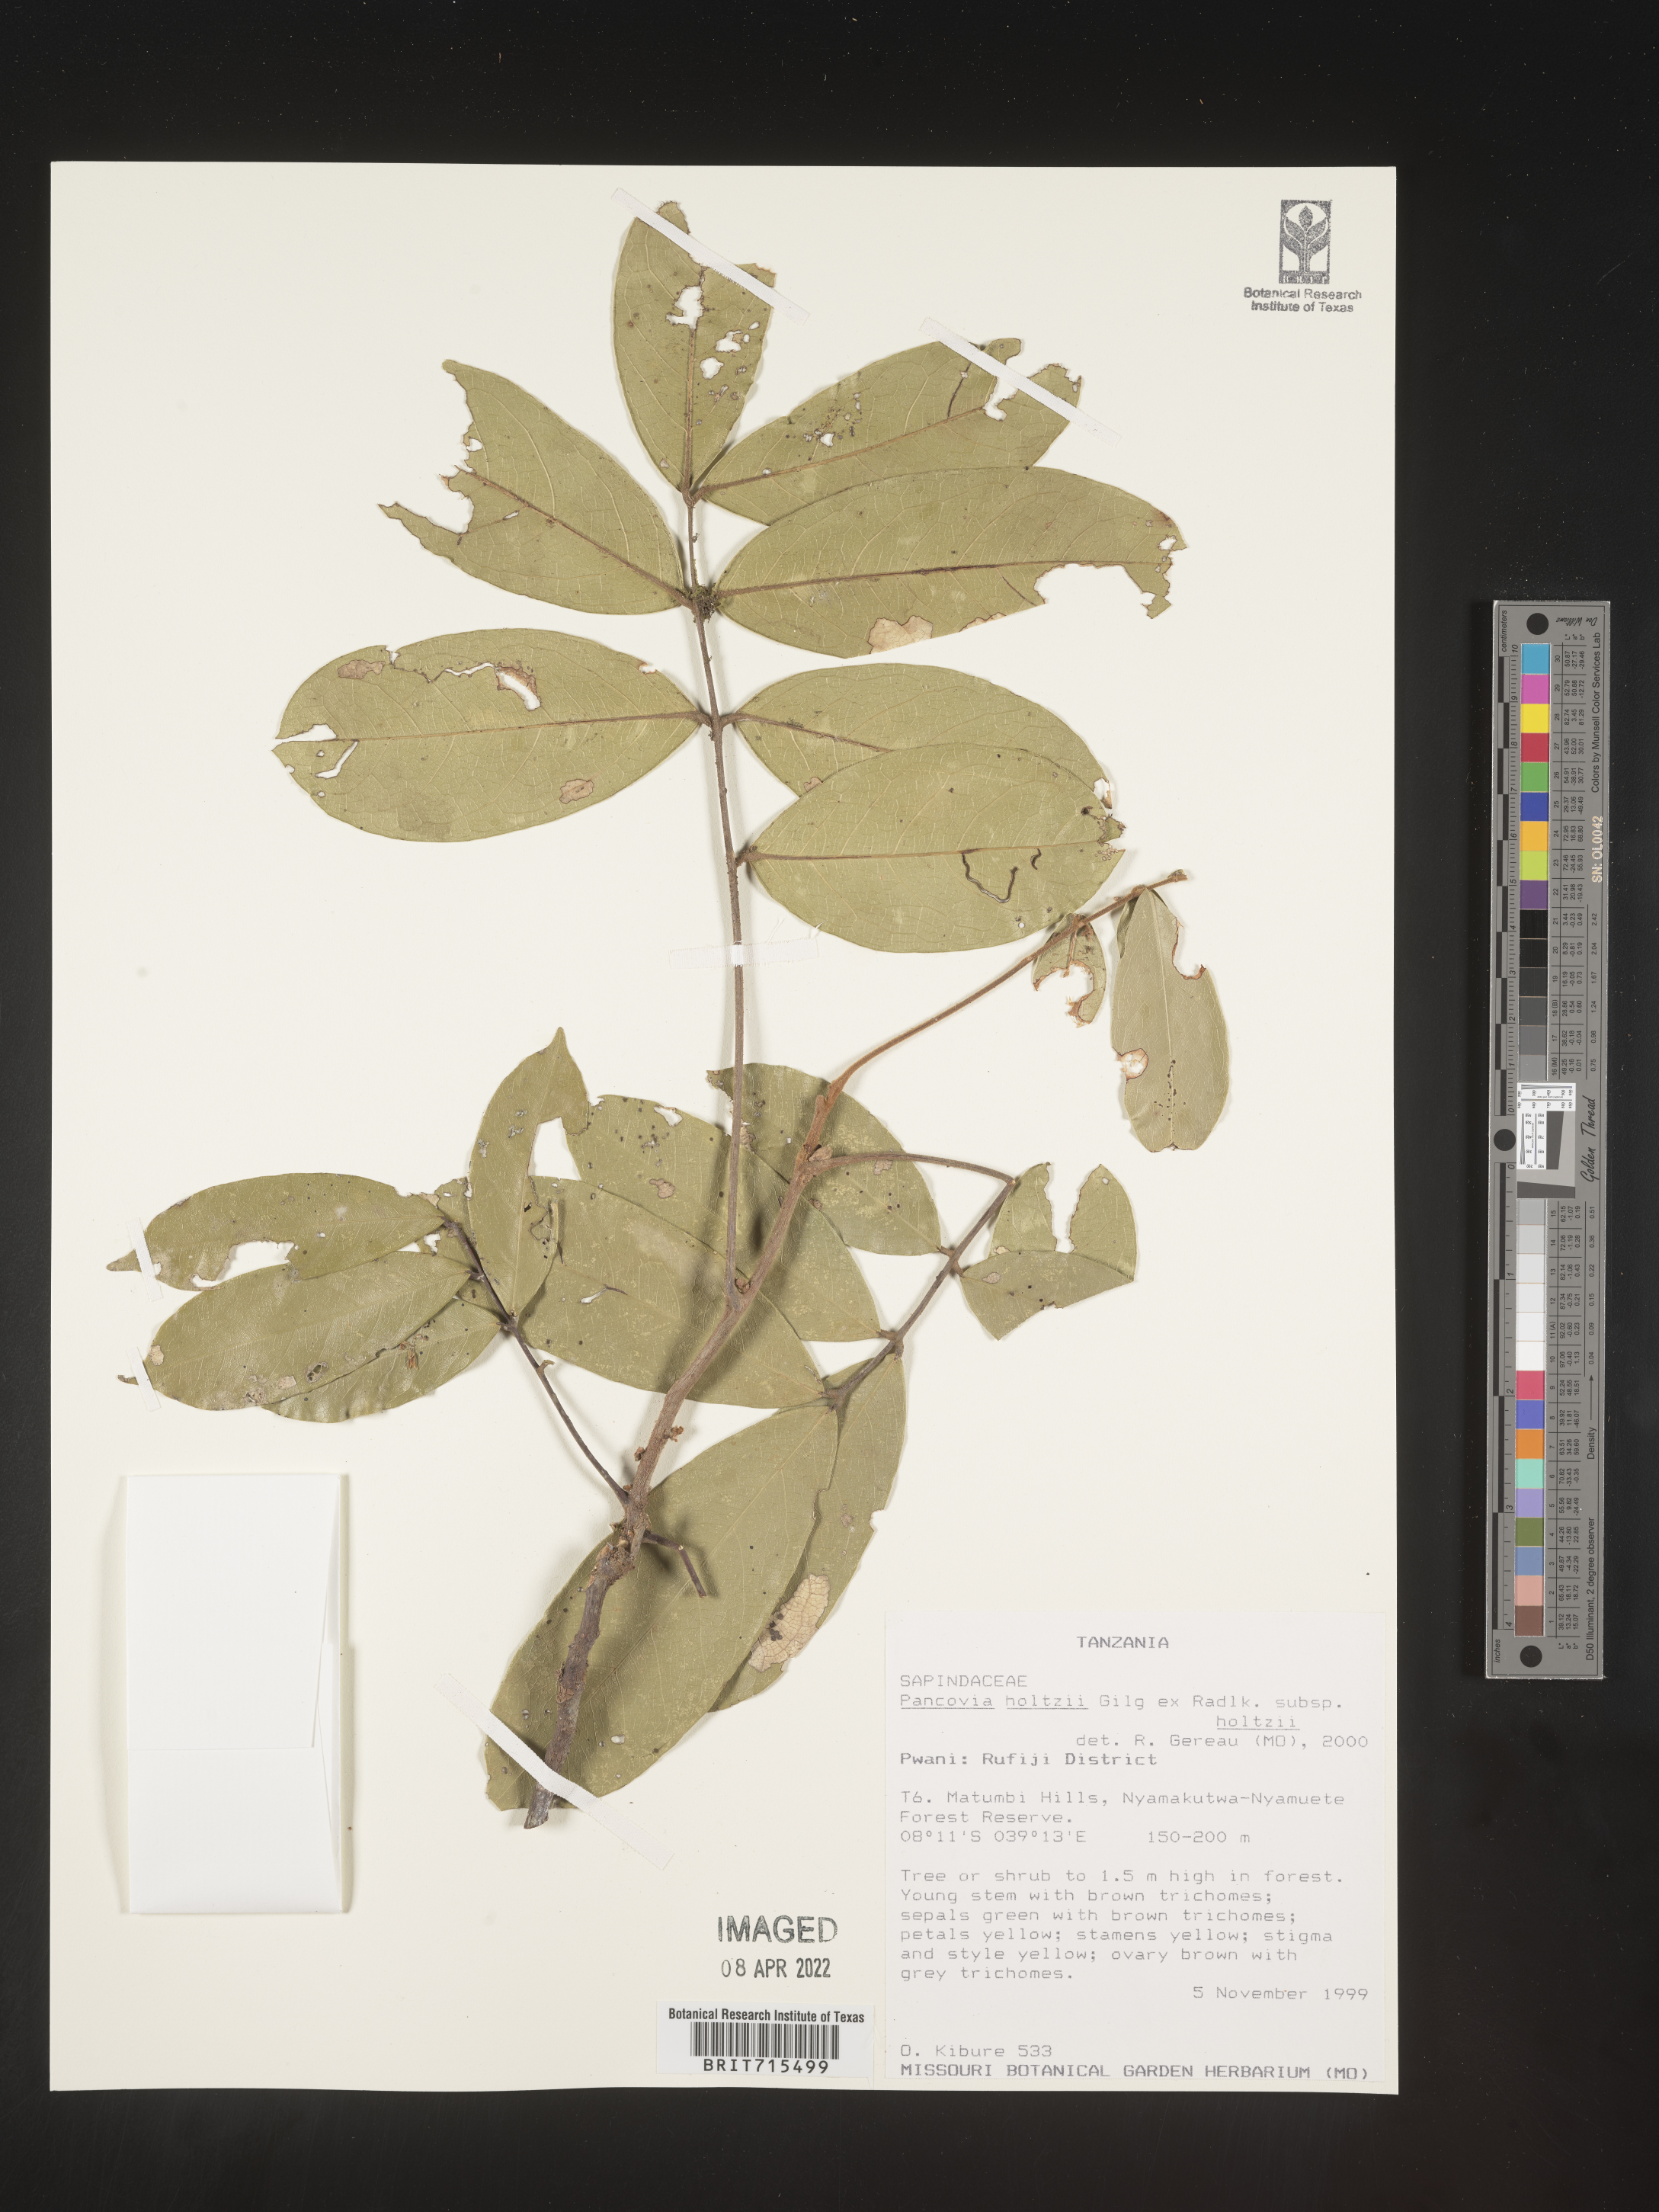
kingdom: Plantae
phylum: Tracheophyta
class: Magnoliopsida
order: Sapindales
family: Sapindaceae
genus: Pancovia
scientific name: Pancovia
